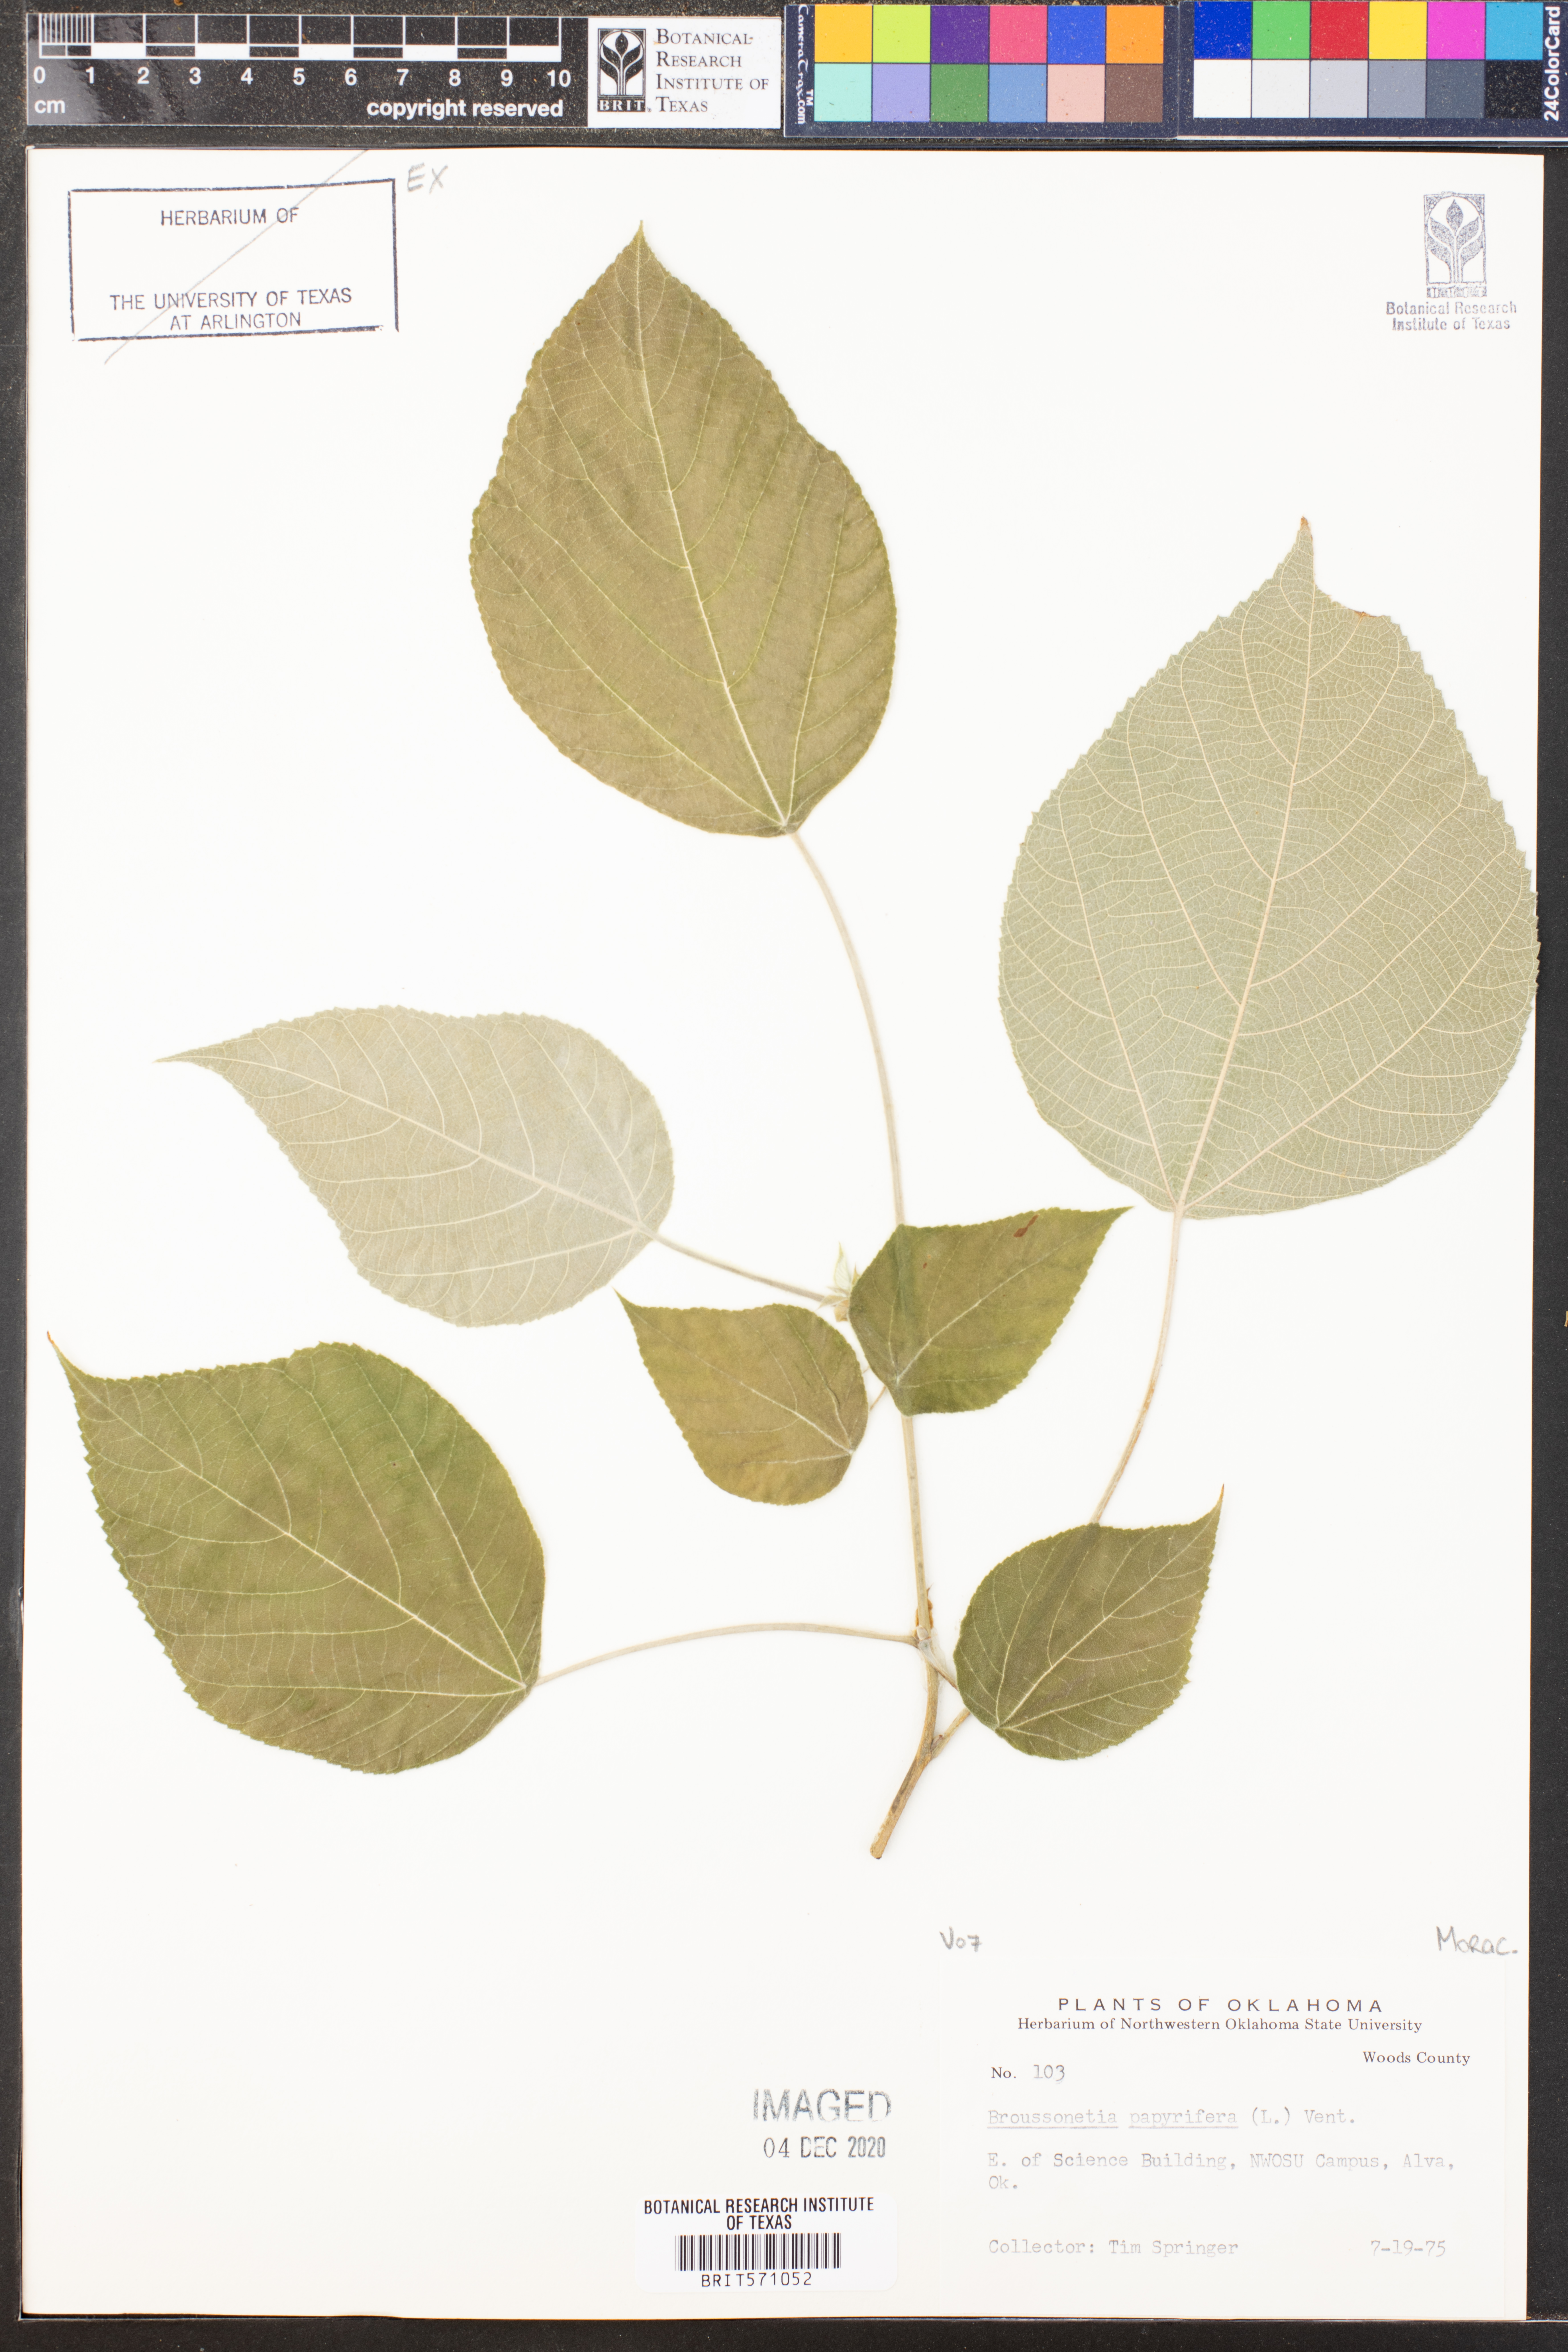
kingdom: Plantae
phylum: Tracheophyta
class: Magnoliopsida
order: Rosales
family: Moraceae
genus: Broussonetia
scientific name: Broussonetia papyrifera
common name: Paper mulberry
